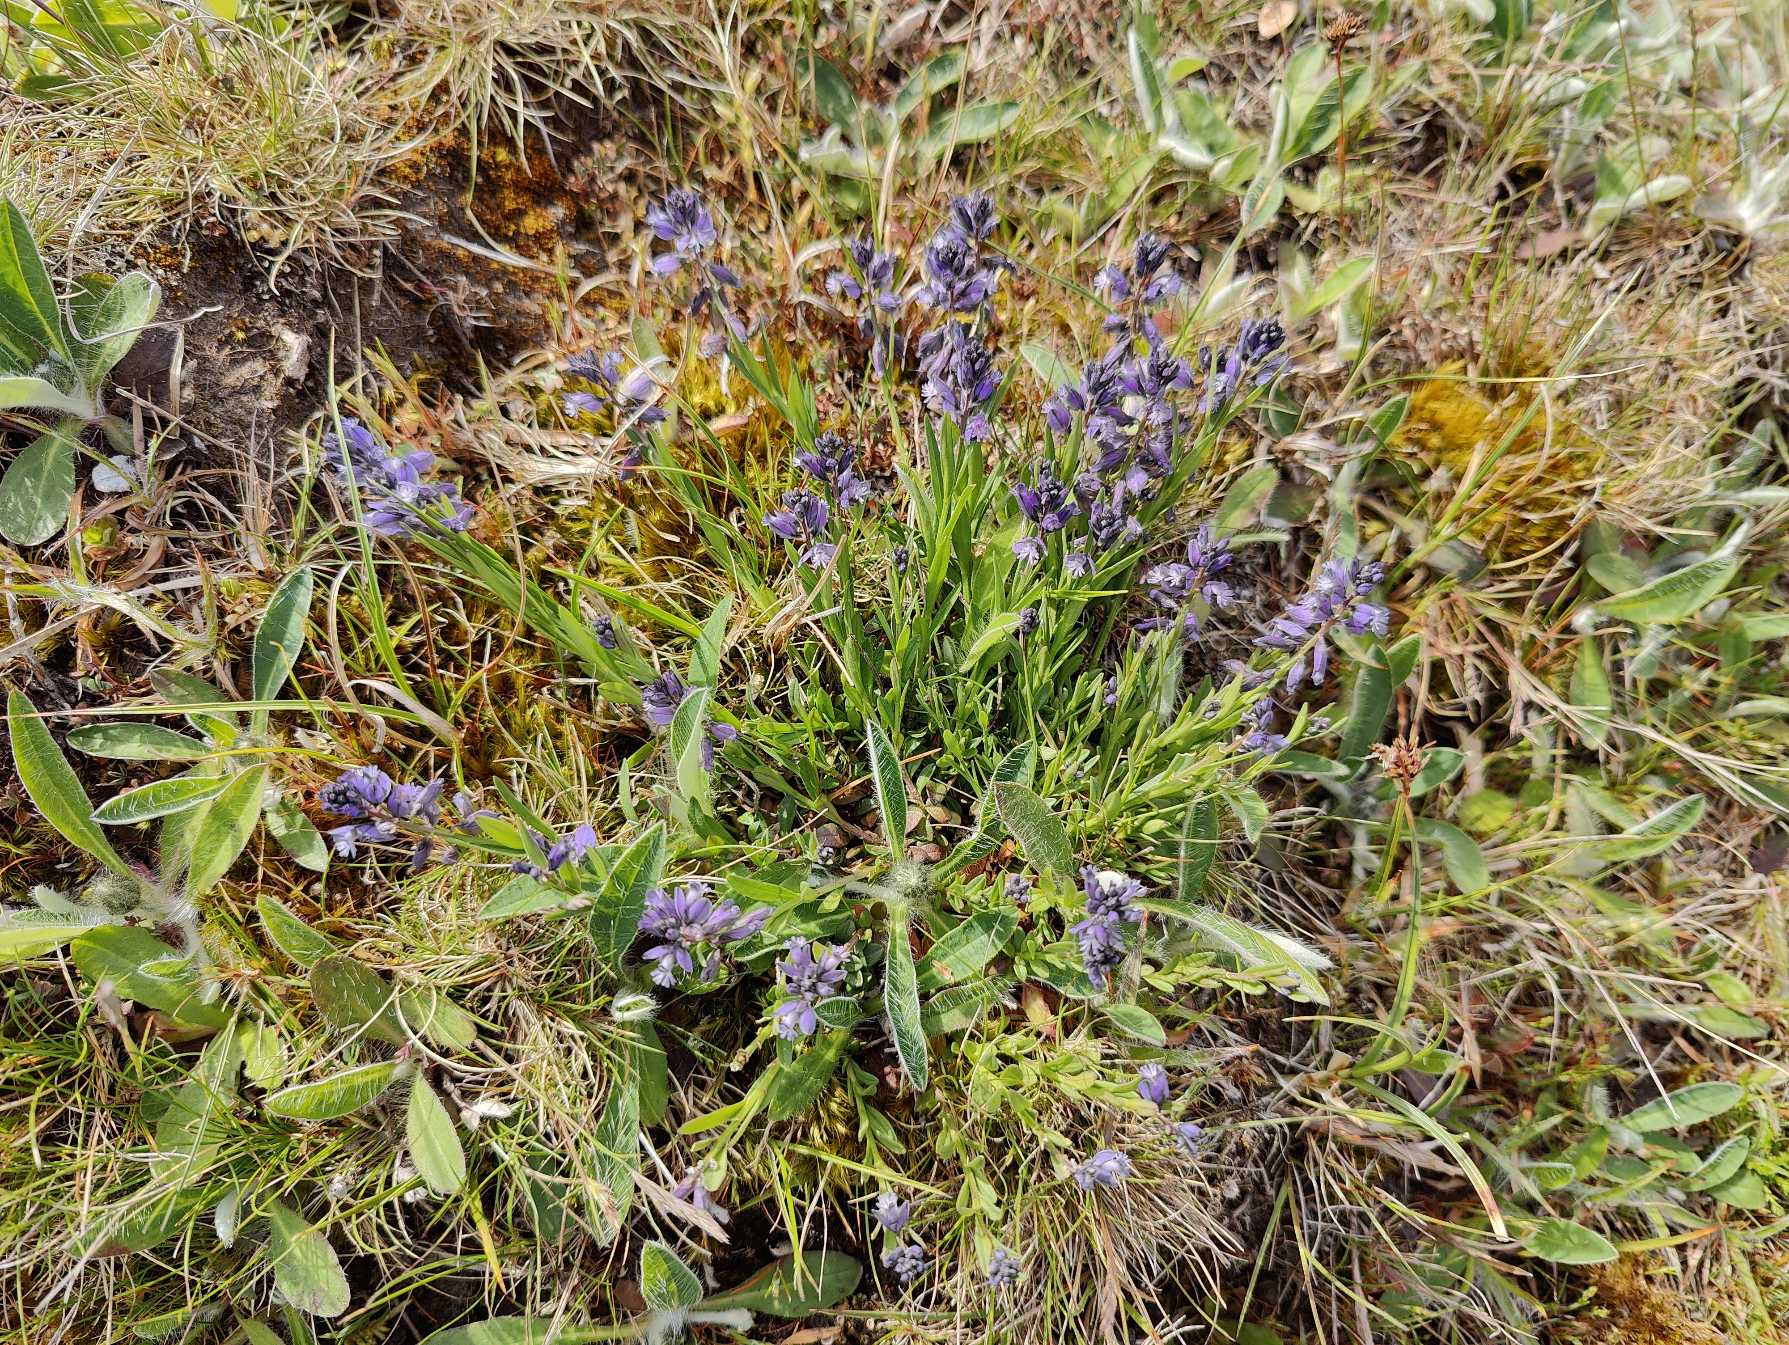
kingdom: Plantae
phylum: Tracheophyta
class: Magnoliopsida
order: Fabales
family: Polygalaceae
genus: Polygala
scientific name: Polygala vulgaris
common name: Almindelig mælkeurt
